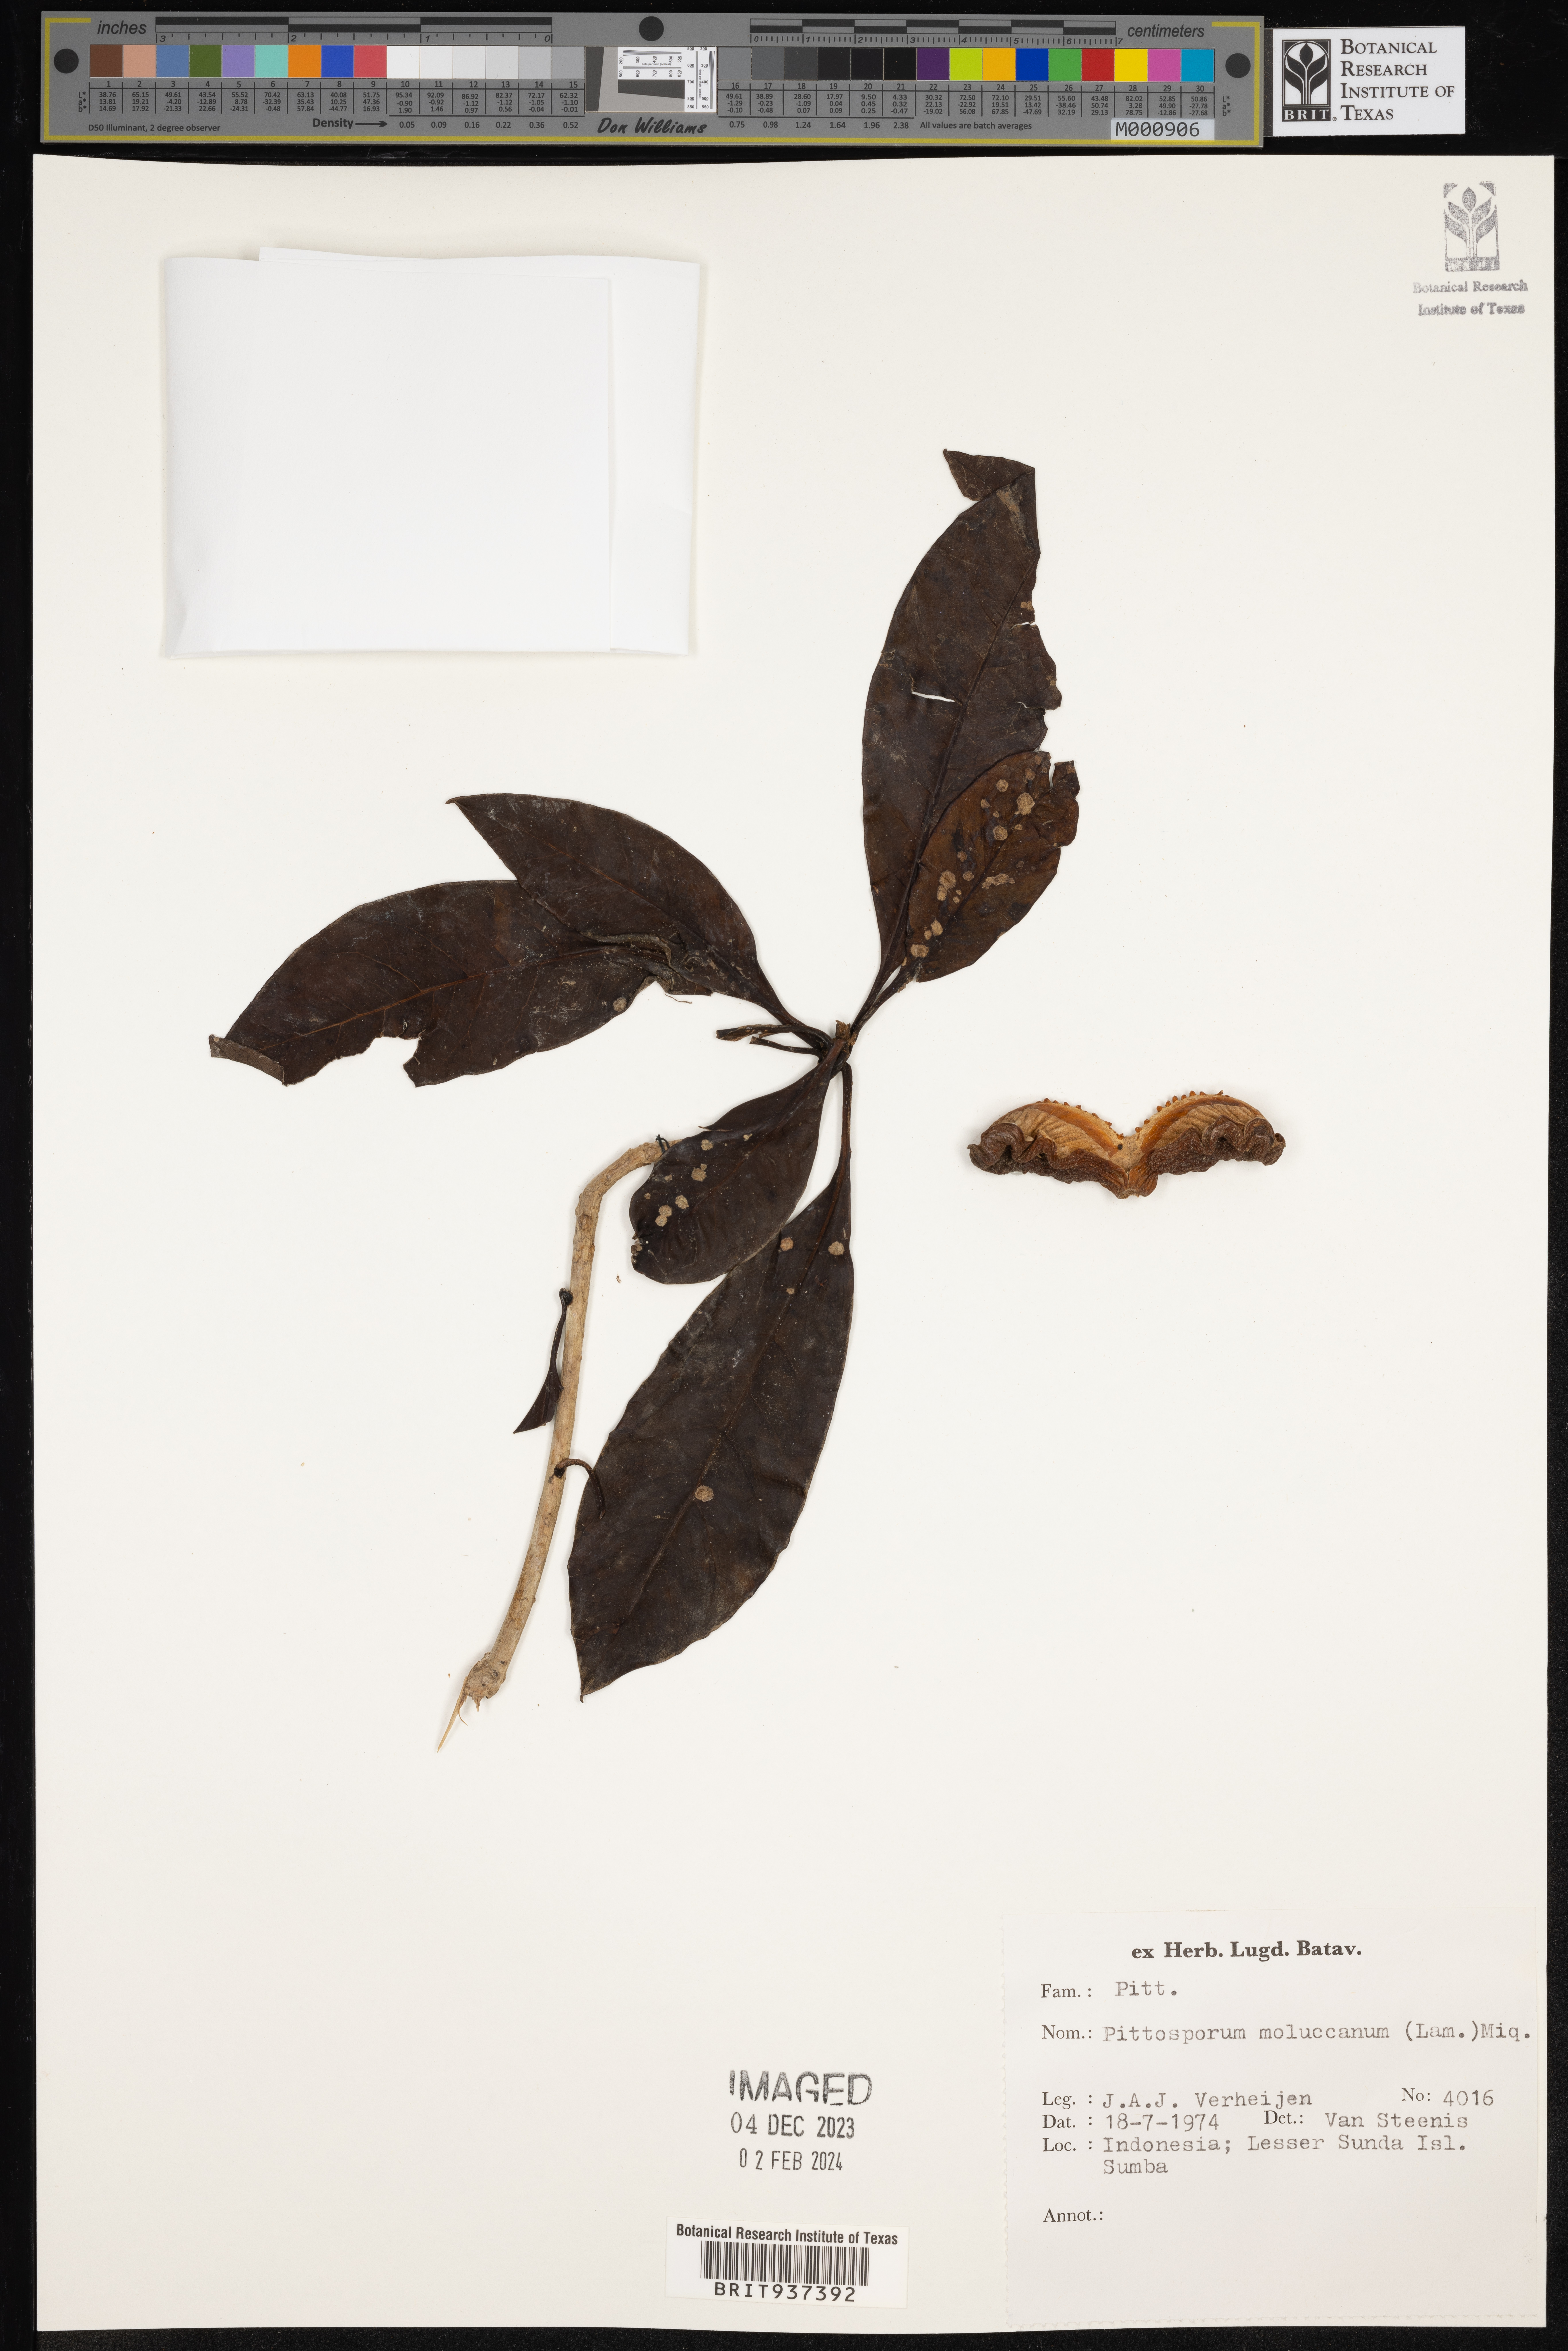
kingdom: Plantae
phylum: Tracheophyta
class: Magnoliopsida
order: Apiales
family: Pittosporaceae
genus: Pittosporum
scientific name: Pittosporum moluccanum
